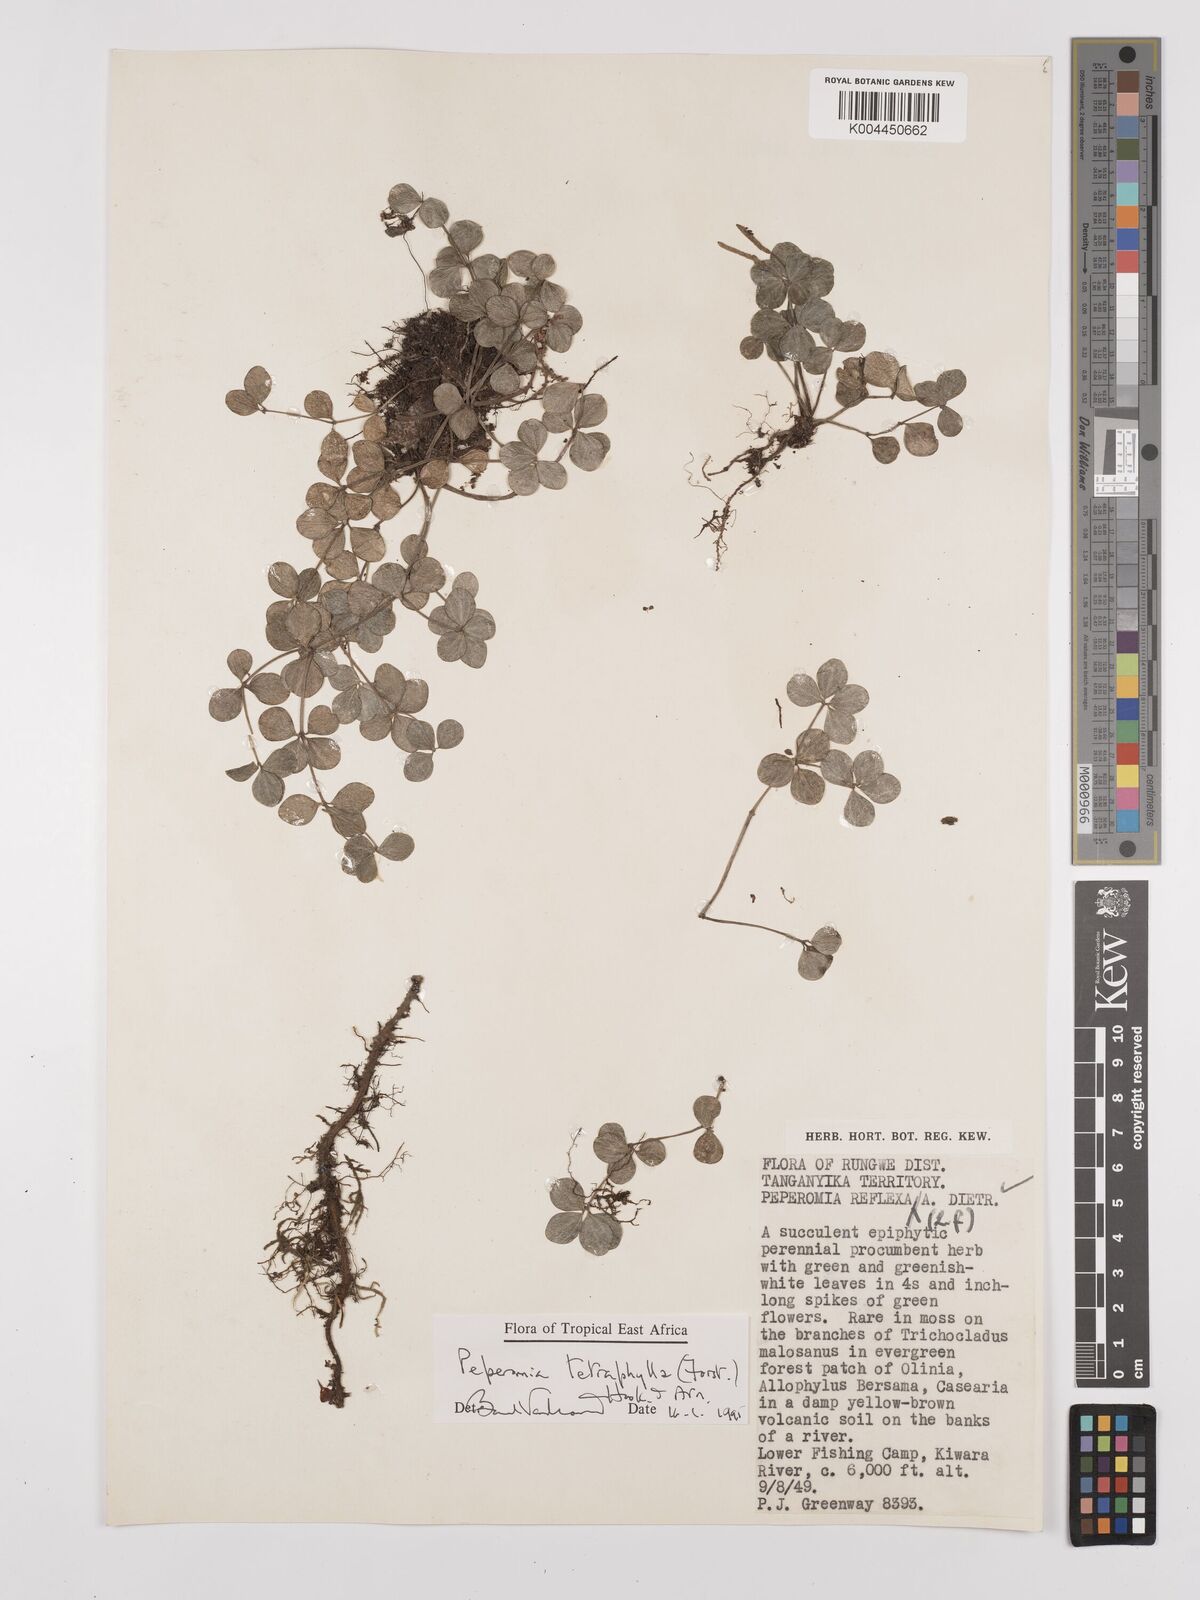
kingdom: Plantae
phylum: Tracheophyta
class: Magnoliopsida
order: Piperales
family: Piperaceae
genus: Peperomia
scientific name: Peperomia tetraphylla
